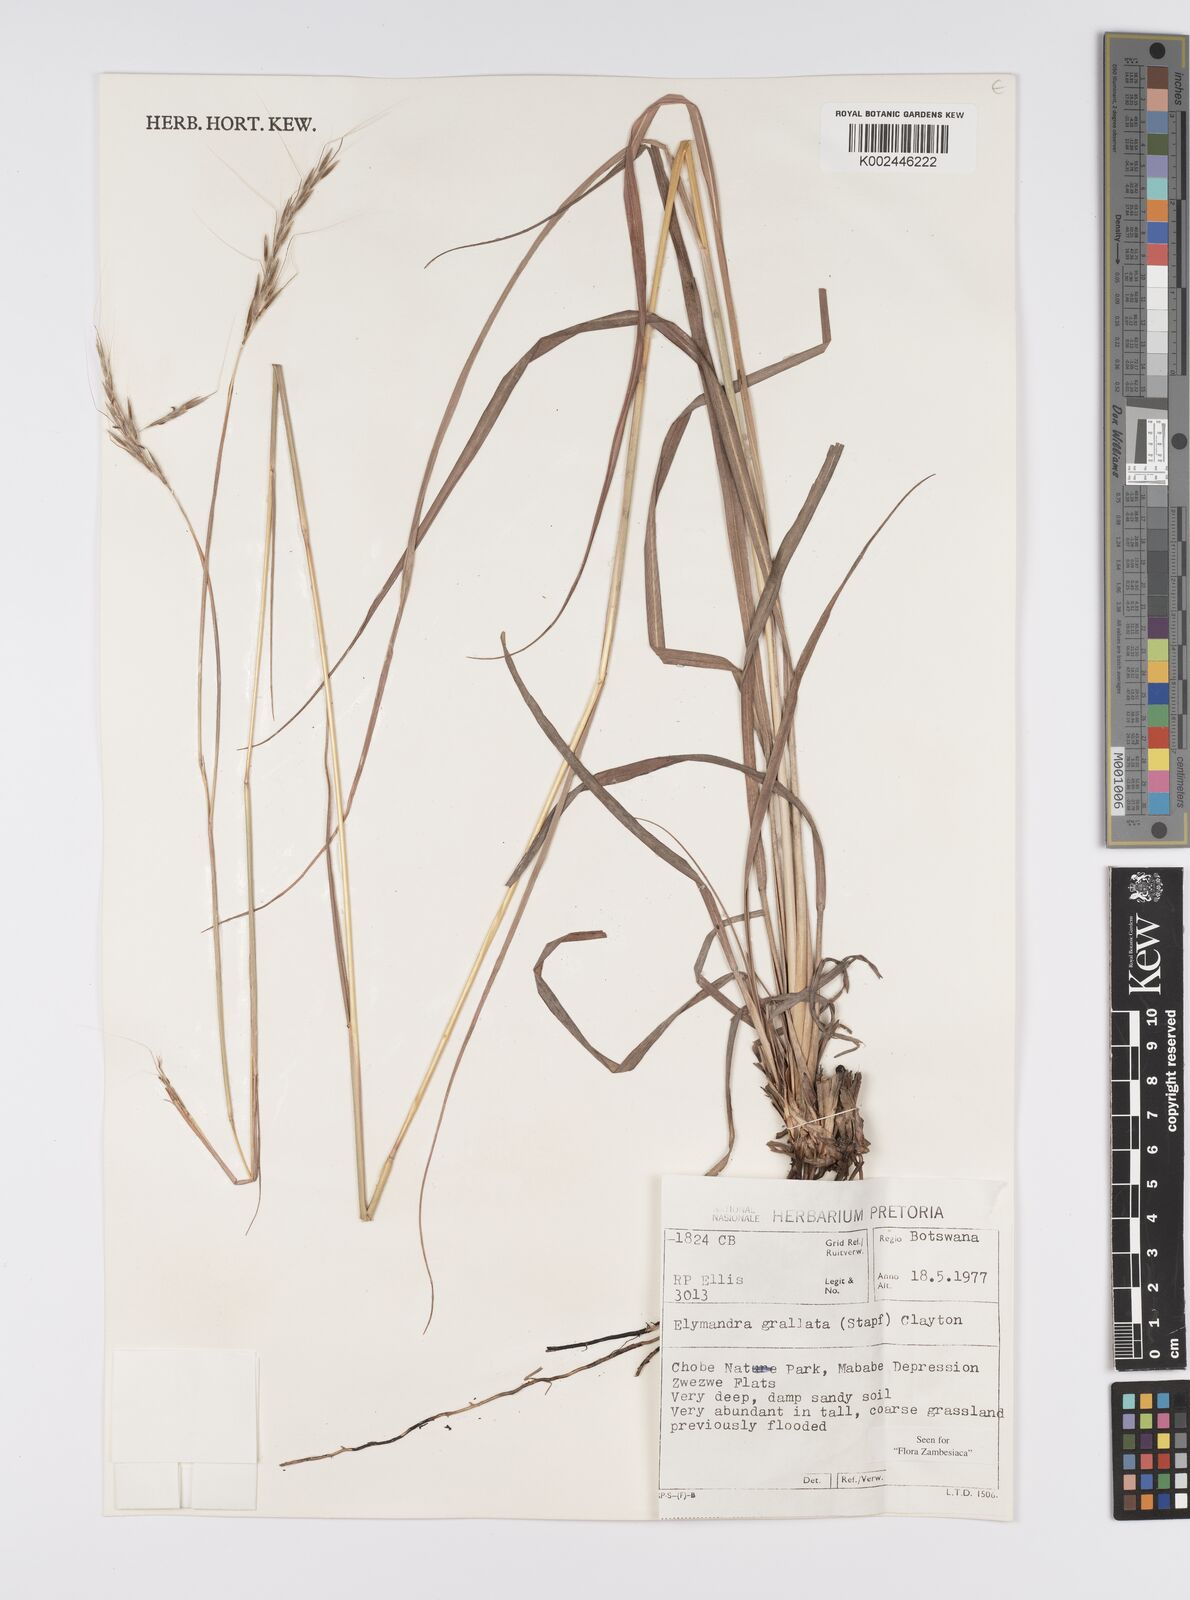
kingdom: Plantae
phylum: Tracheophyta
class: Liliopsida
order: Poales
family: Poaceae
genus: Elymandra
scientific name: Elymandra grallata
